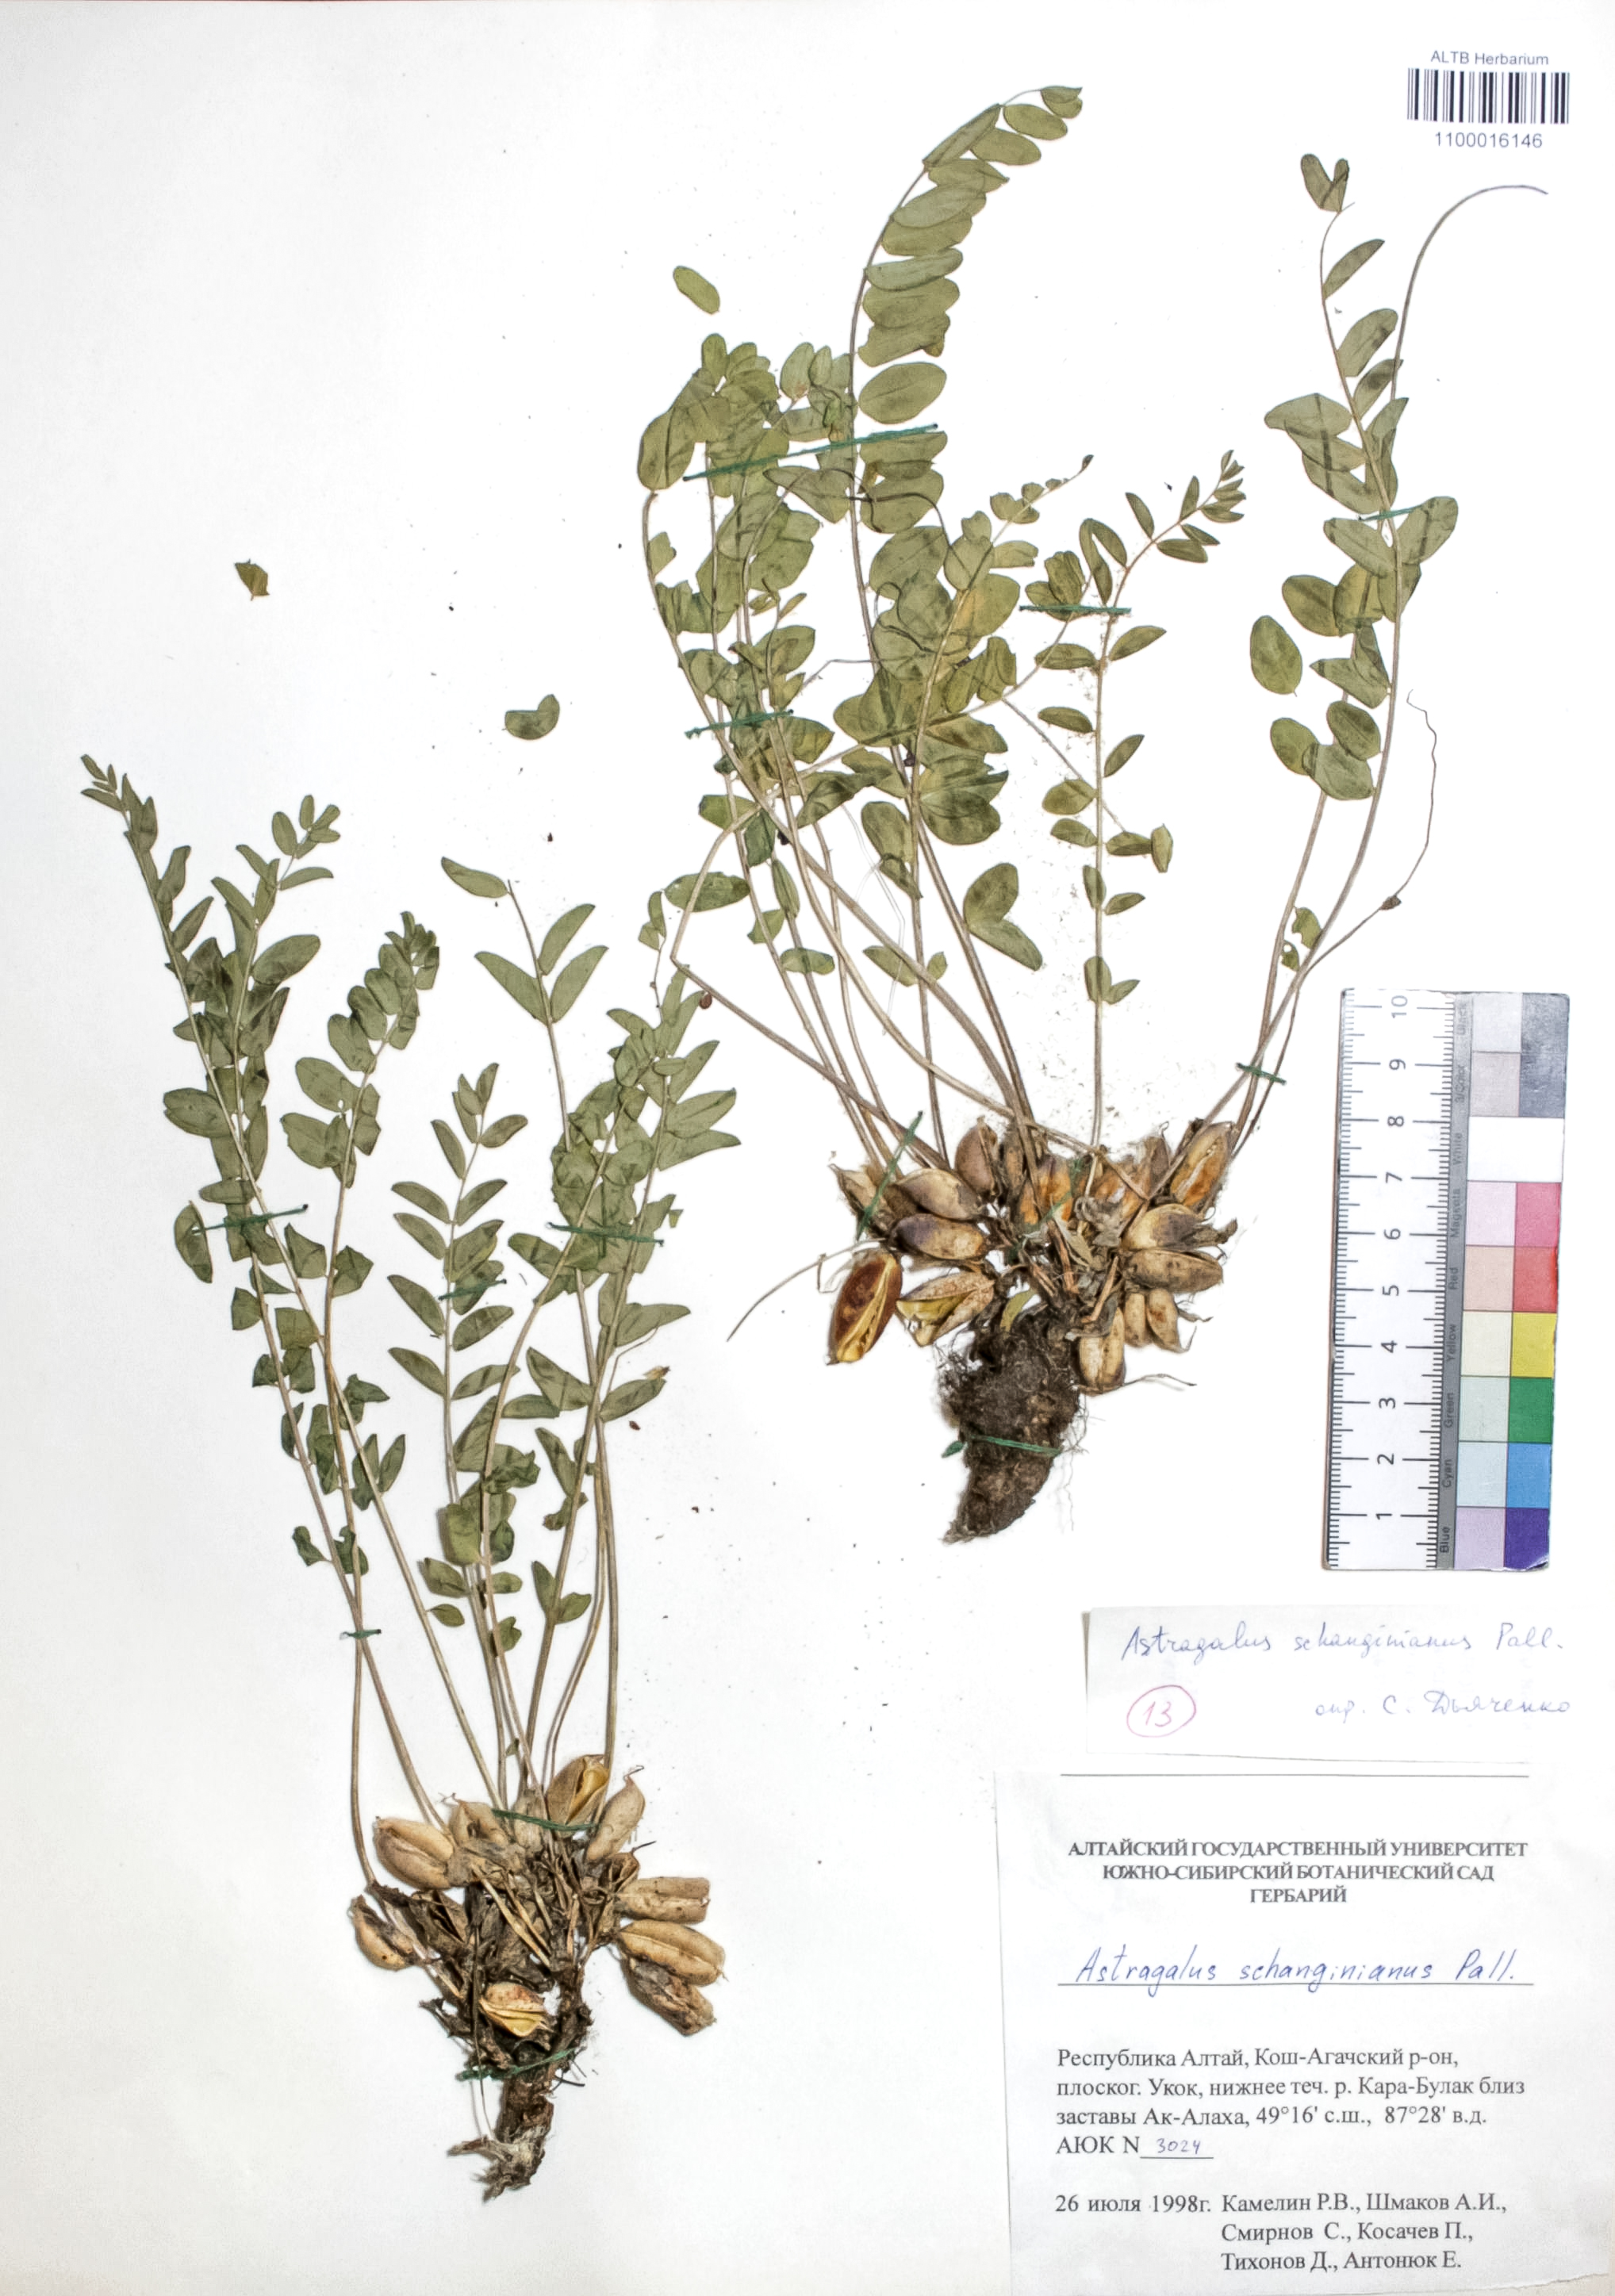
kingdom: Plantae
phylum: Tracheophyta
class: Magnoliopsida
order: Fabales
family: Fabaceae
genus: Astragalus
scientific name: Astragalus schanginianus
